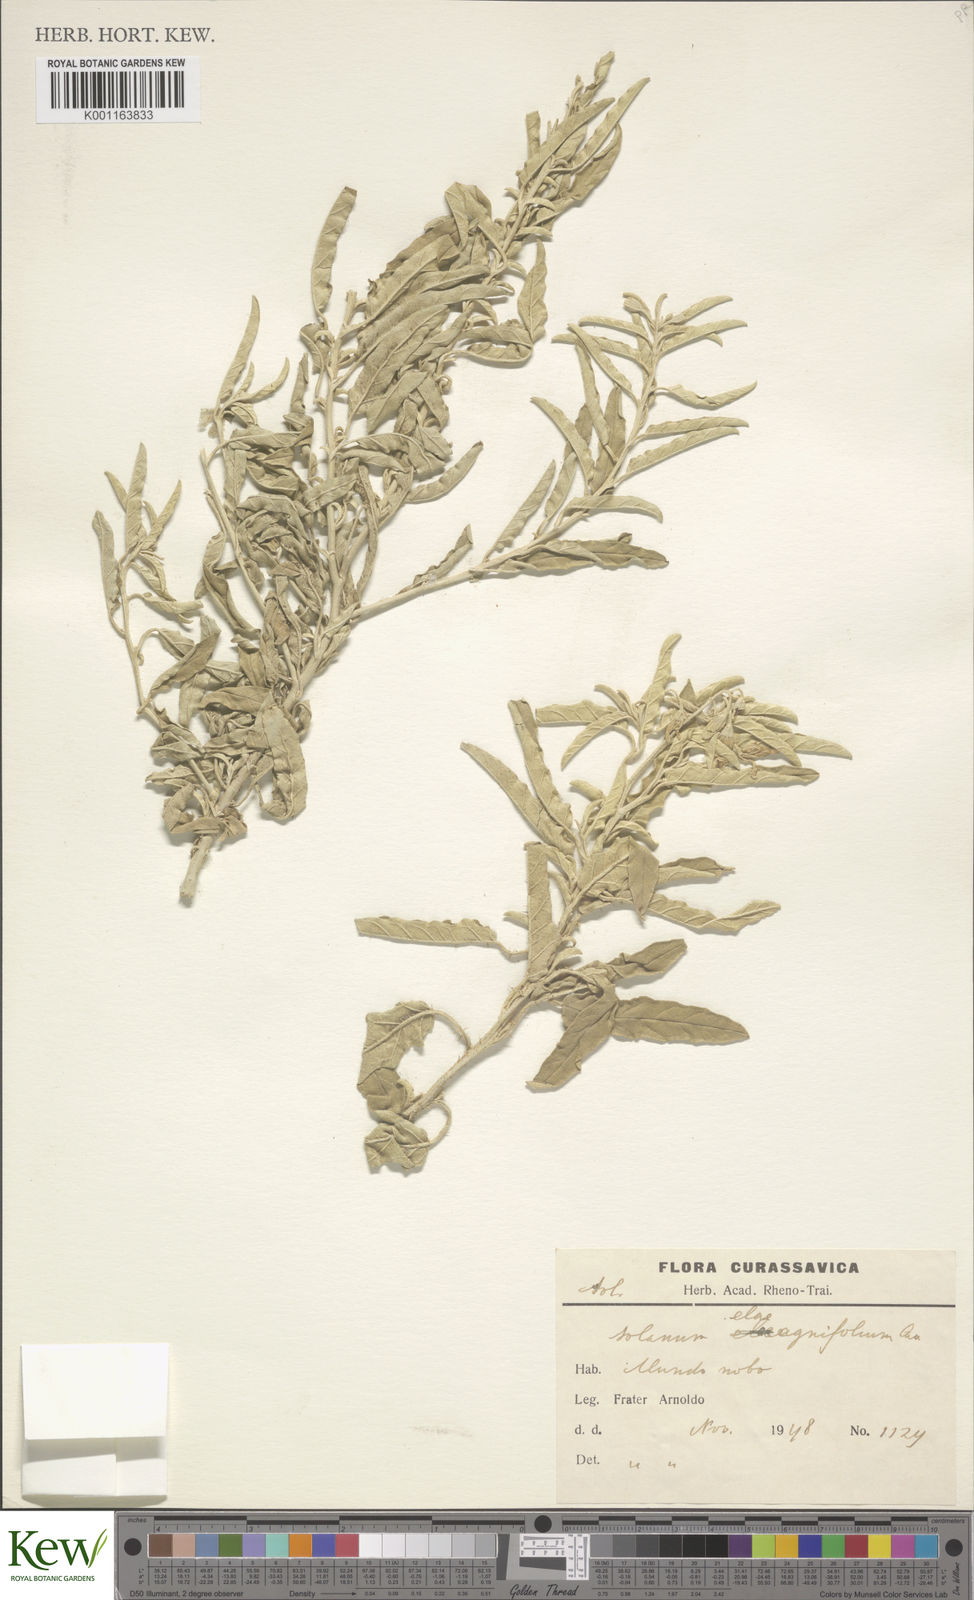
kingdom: Plantae
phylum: Tracheophyta
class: Magnoliopsida
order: Solanales
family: Solanaceae
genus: Solanum
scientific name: Solanum elaeagnifolium
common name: Silverleaf nightshade
